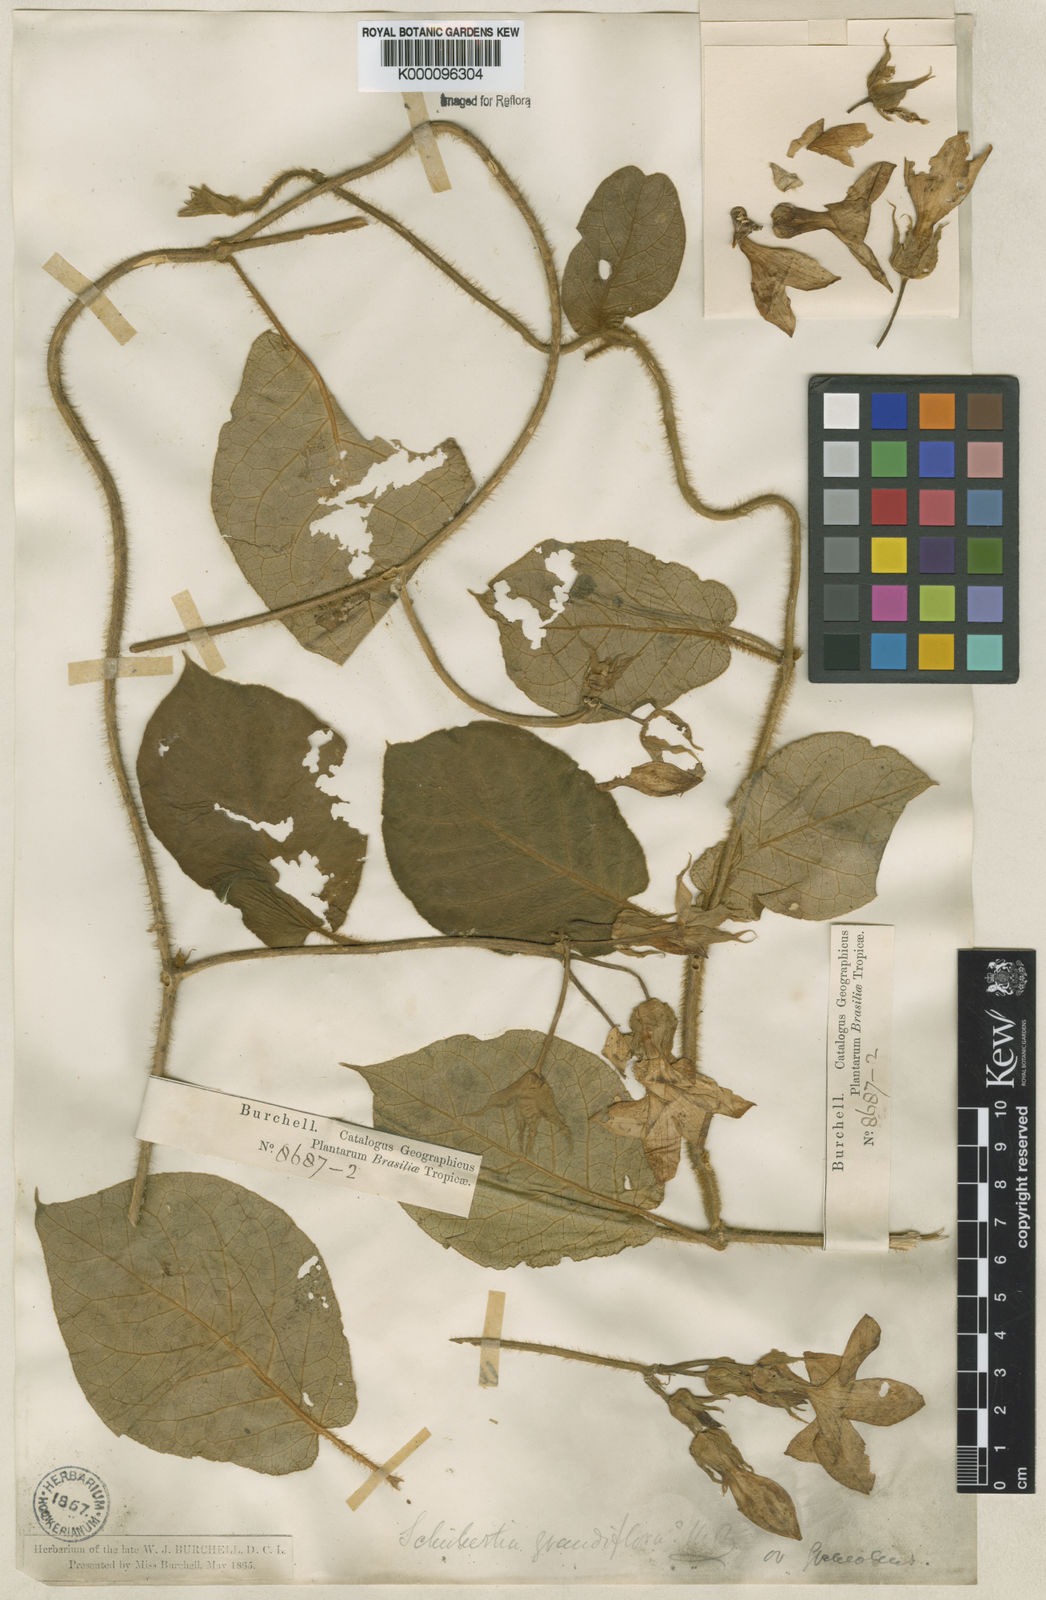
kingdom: Plantae
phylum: Tracheophyta
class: Magnoliopsida
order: Gentianales
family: Apocynaceae
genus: Macroscepis
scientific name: Macroscepis grandiflora
